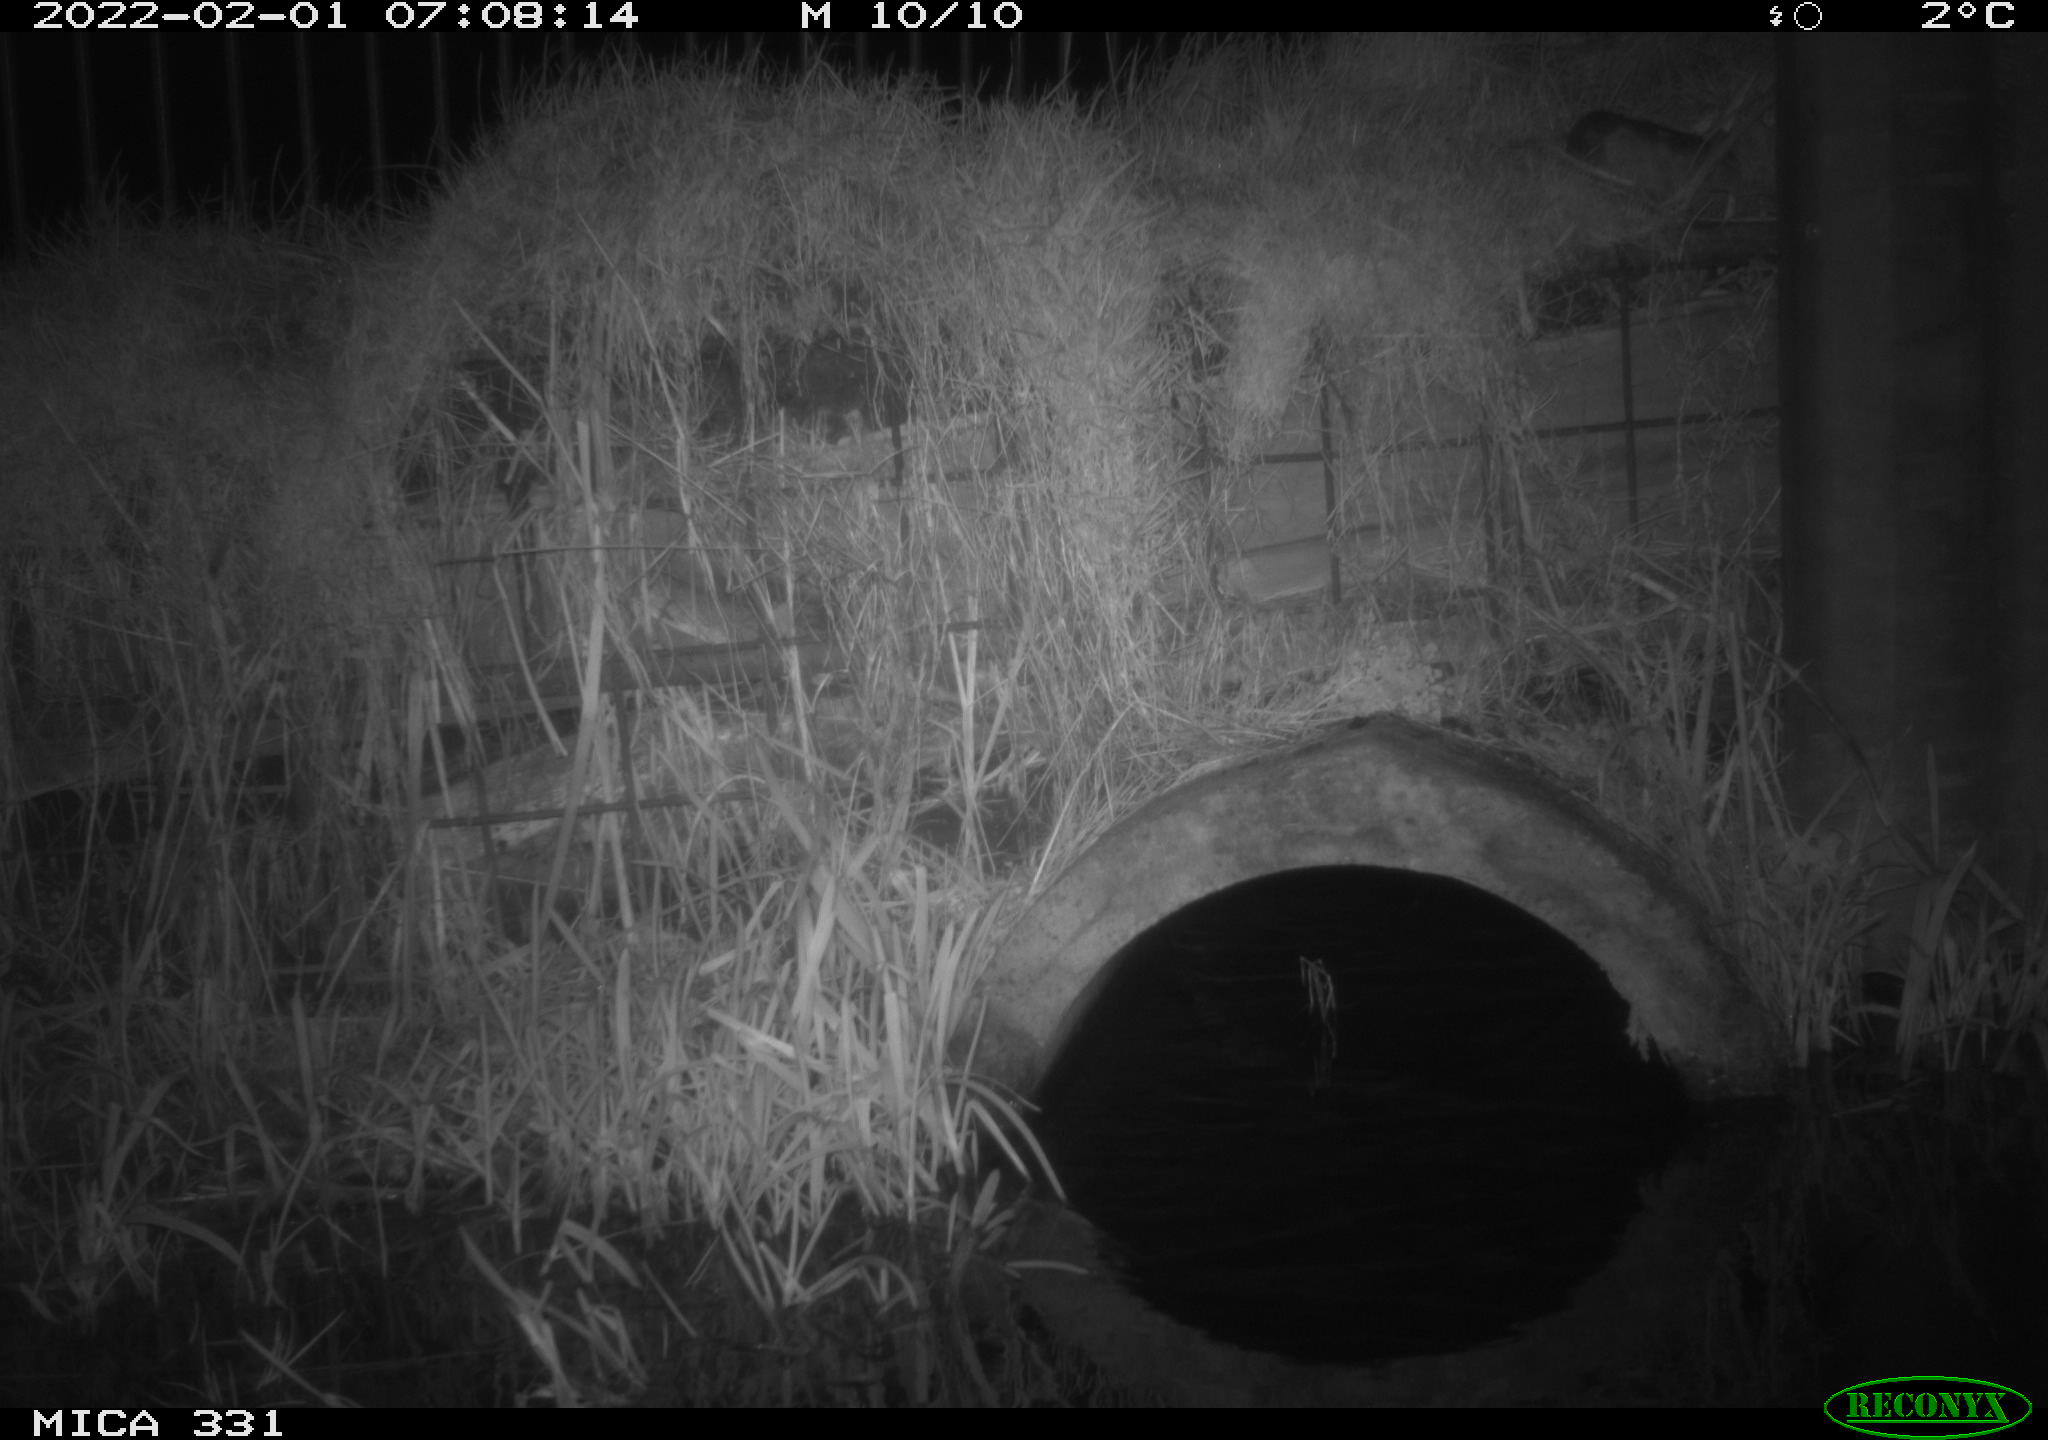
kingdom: Animalia
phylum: Chordata
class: Mammalia
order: Rodentia
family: Muridae
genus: Rattus
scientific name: Rattus norvegicus
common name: Brown rat
